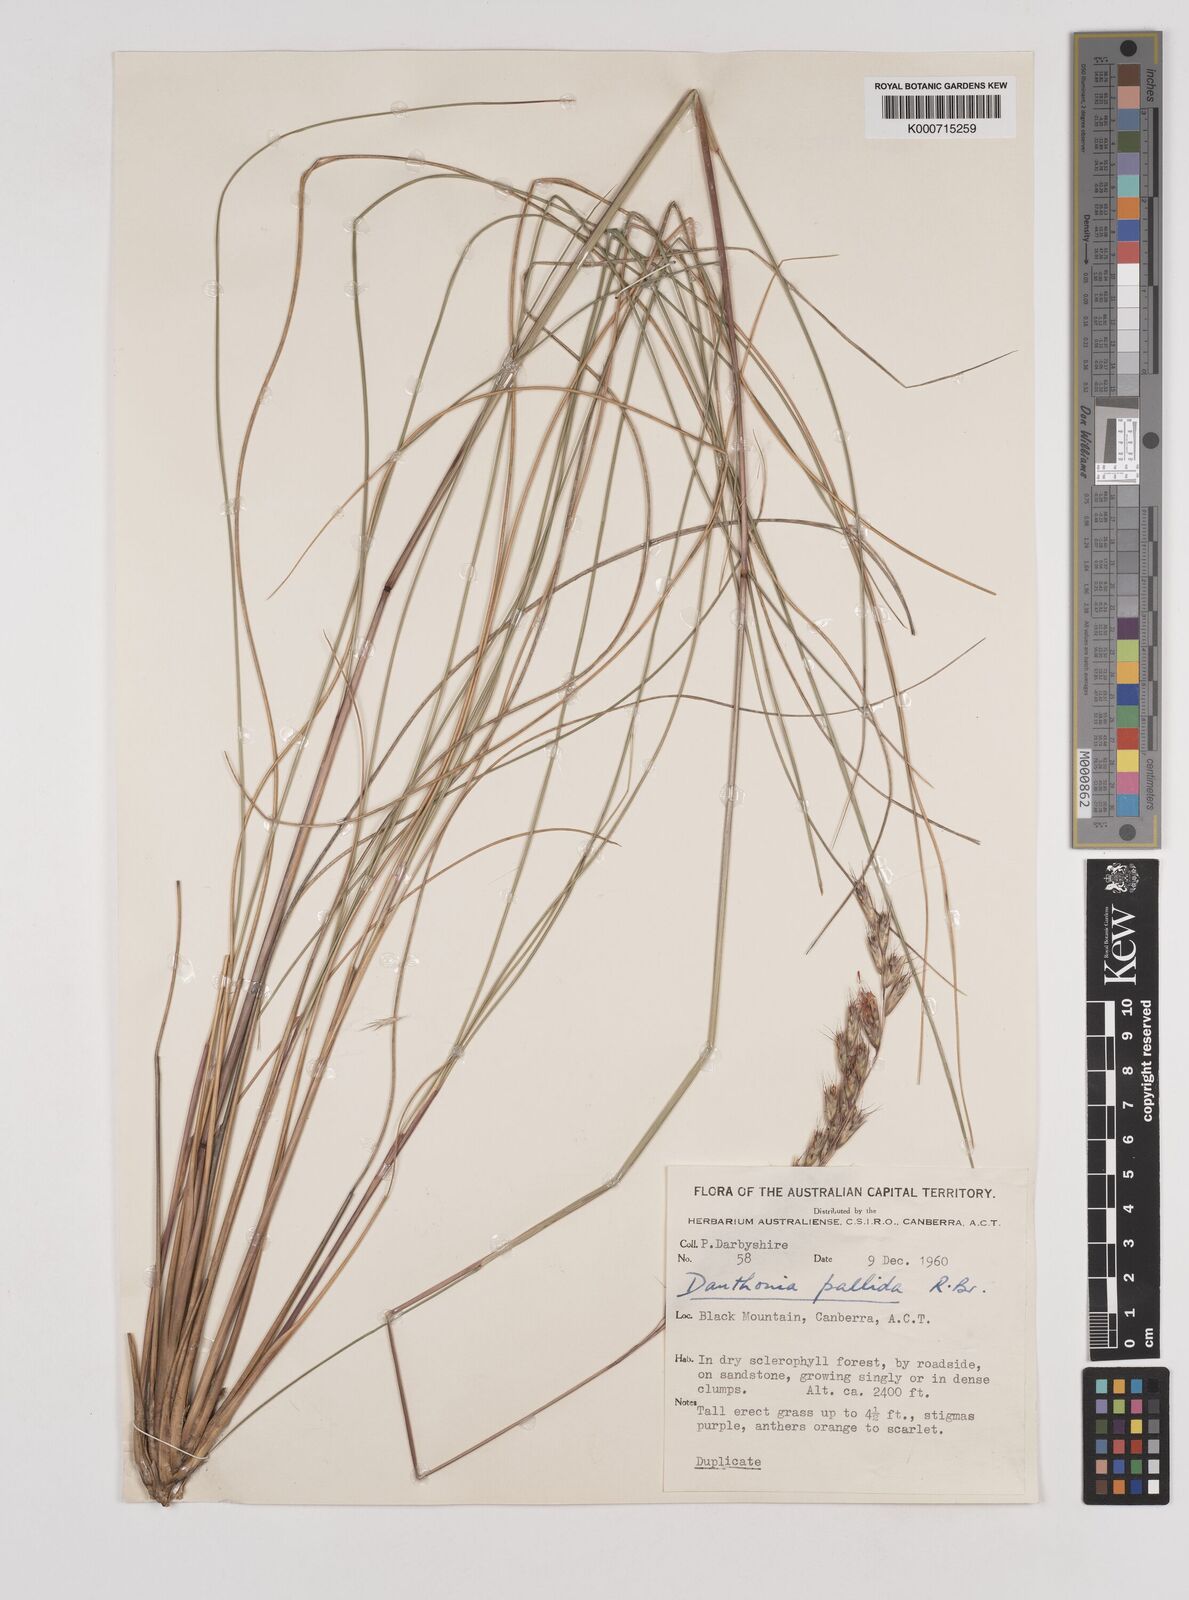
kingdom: Plantae
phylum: Tracheophyta
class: Liliopsida
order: Poales
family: Poaceae
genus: Rytidosperma
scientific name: Rytidosperma
